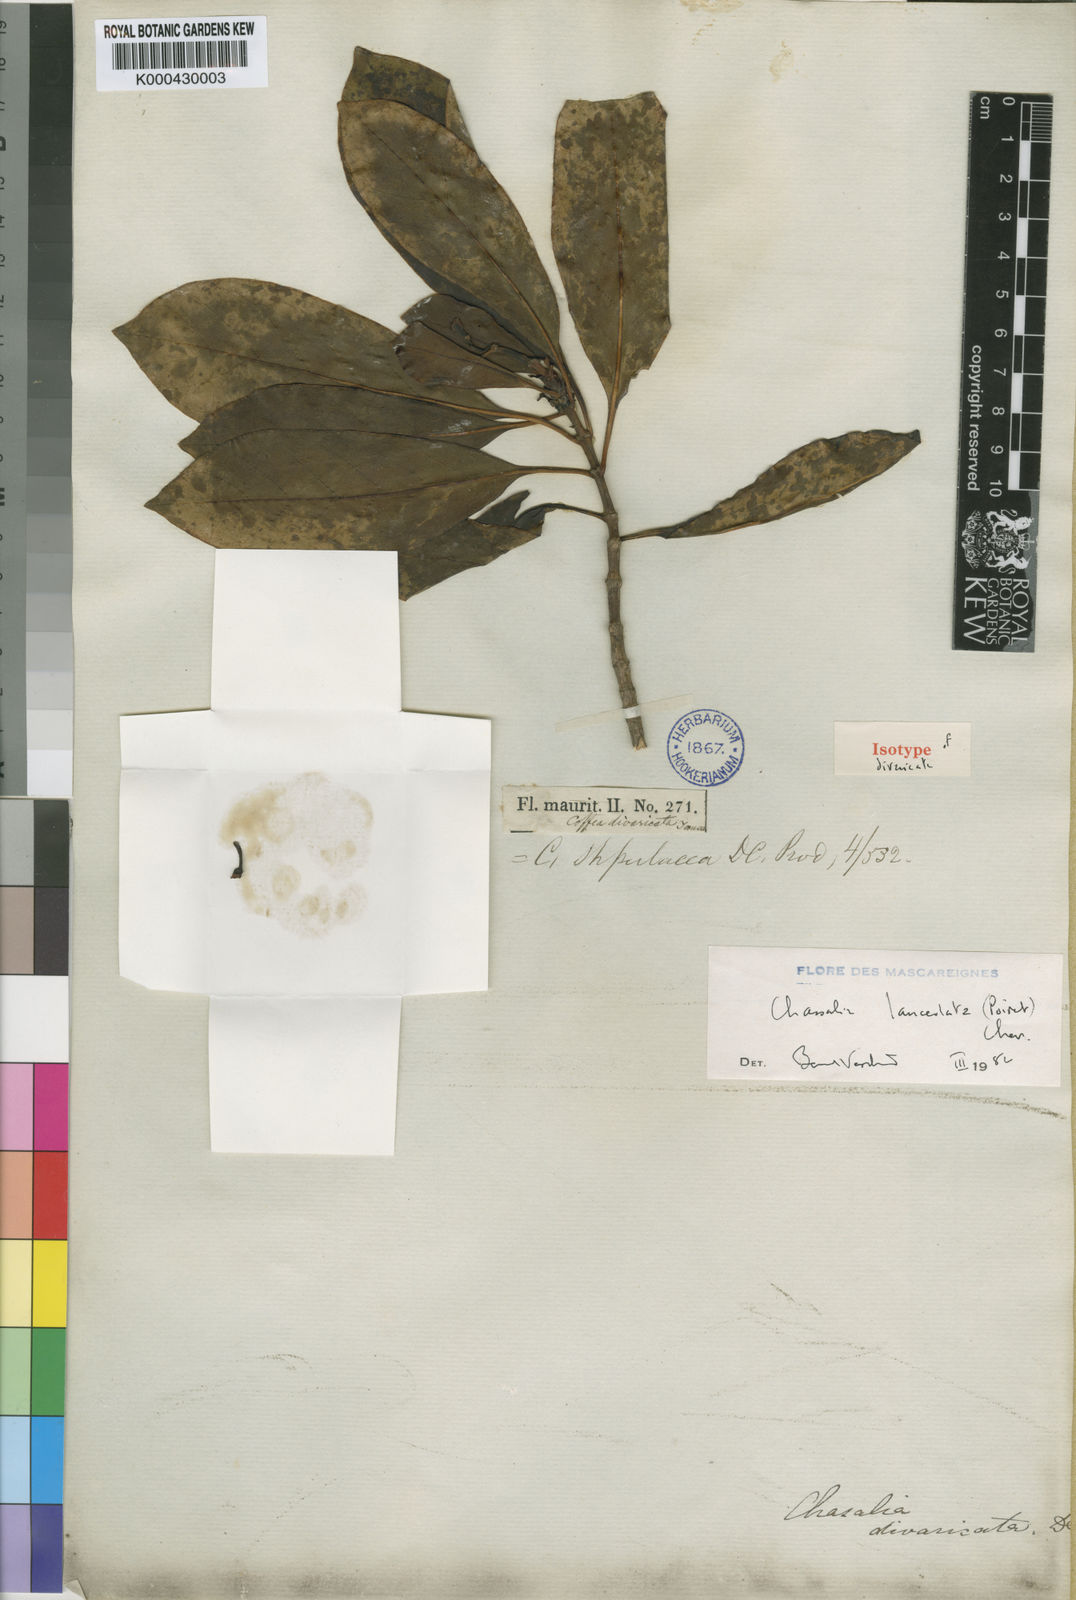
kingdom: Plantae
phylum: Tracheophyta
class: Magnoliopsida
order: Gentianales
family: Rubiaceae
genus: Chassalia
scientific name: Chassalia lanceolata
